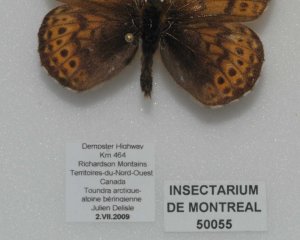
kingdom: Animalia
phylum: Arthropoda
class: Insecta
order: Lepidoptera
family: Nymphalidae
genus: Clossiana
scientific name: Clossiana astarte
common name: Astarte Fritillary
